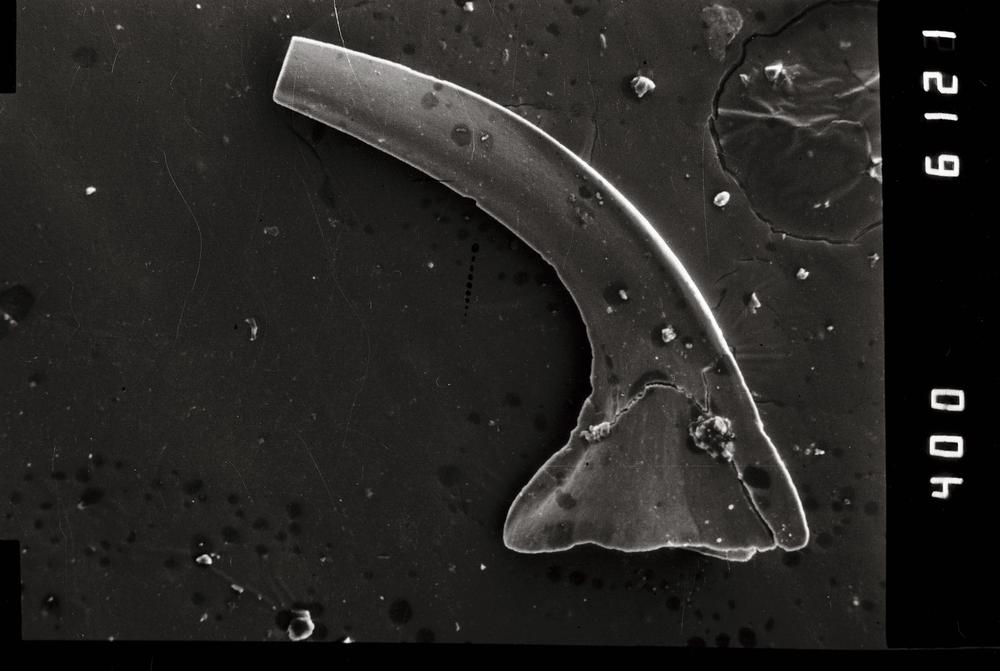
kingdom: Animalia
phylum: Annelida
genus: Paltodus
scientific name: Paltodus subaequalis
